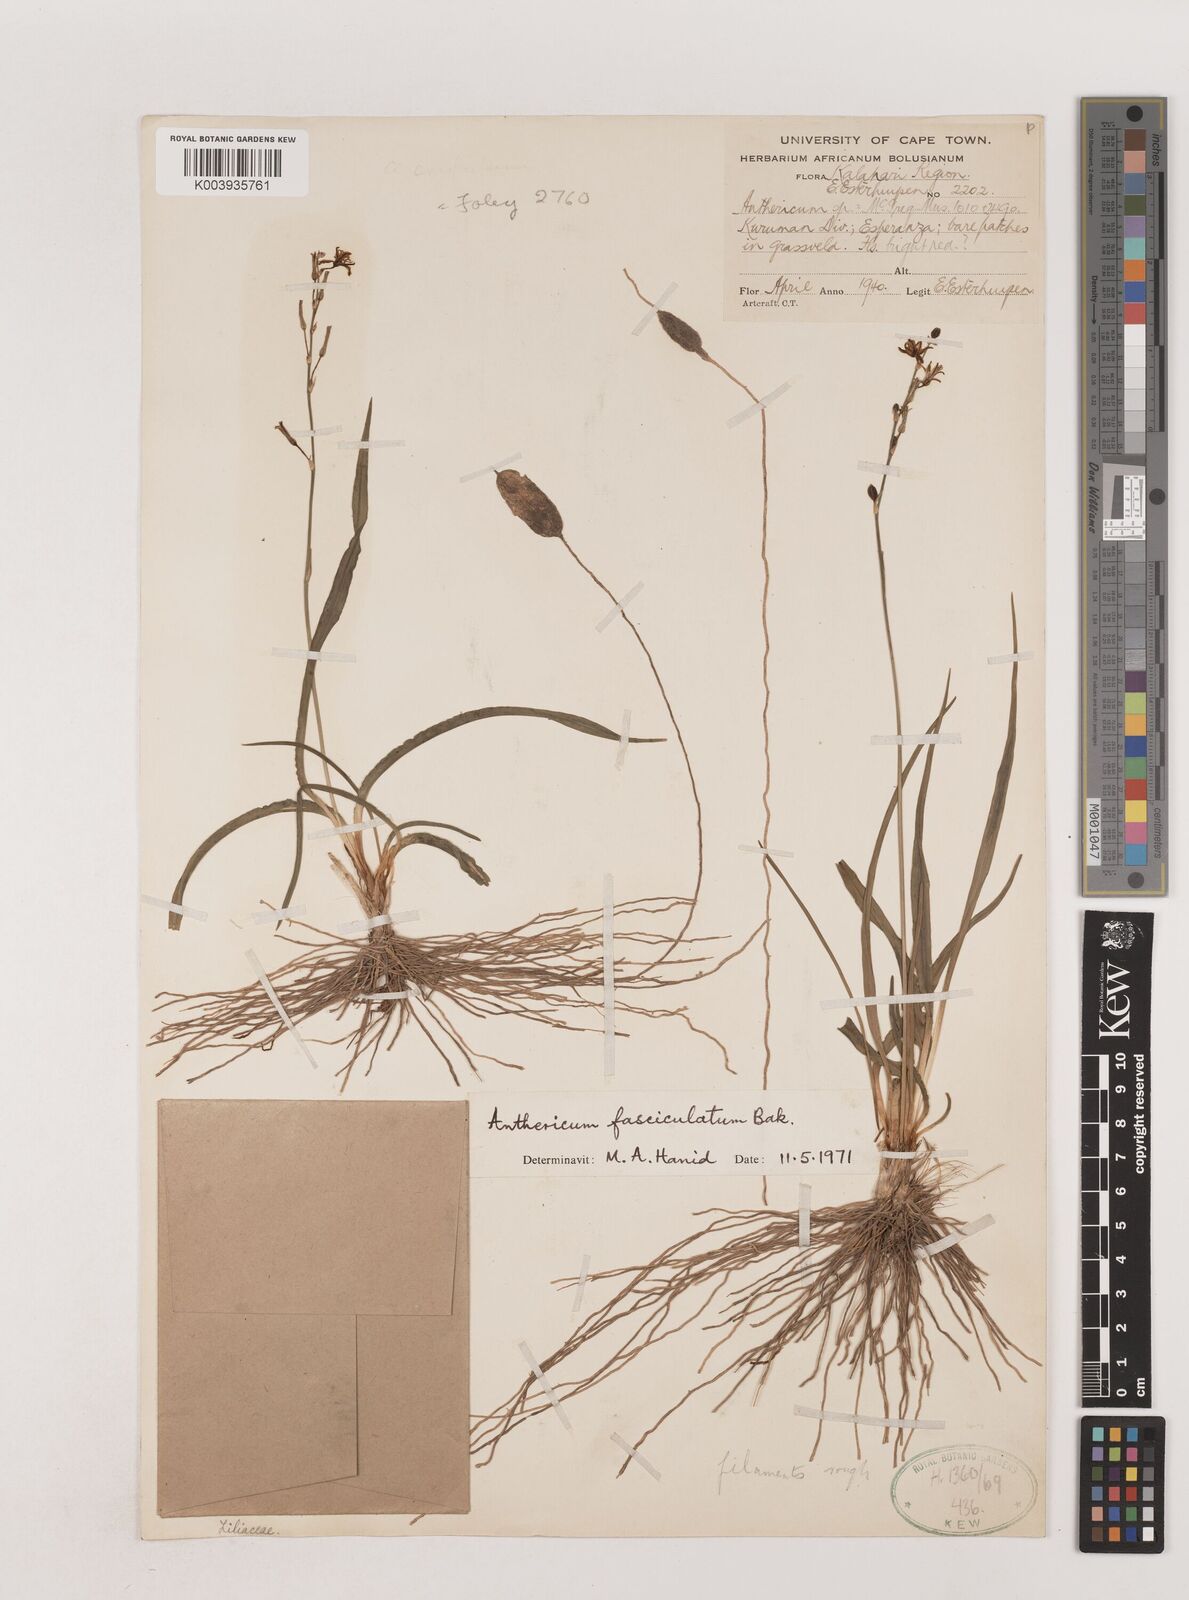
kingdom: Plantae
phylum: Tracheophyta
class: Liliopsida
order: Asparagales
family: Asparagaceae
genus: Chlorophytum
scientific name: Chlorophytum fasciculatum
